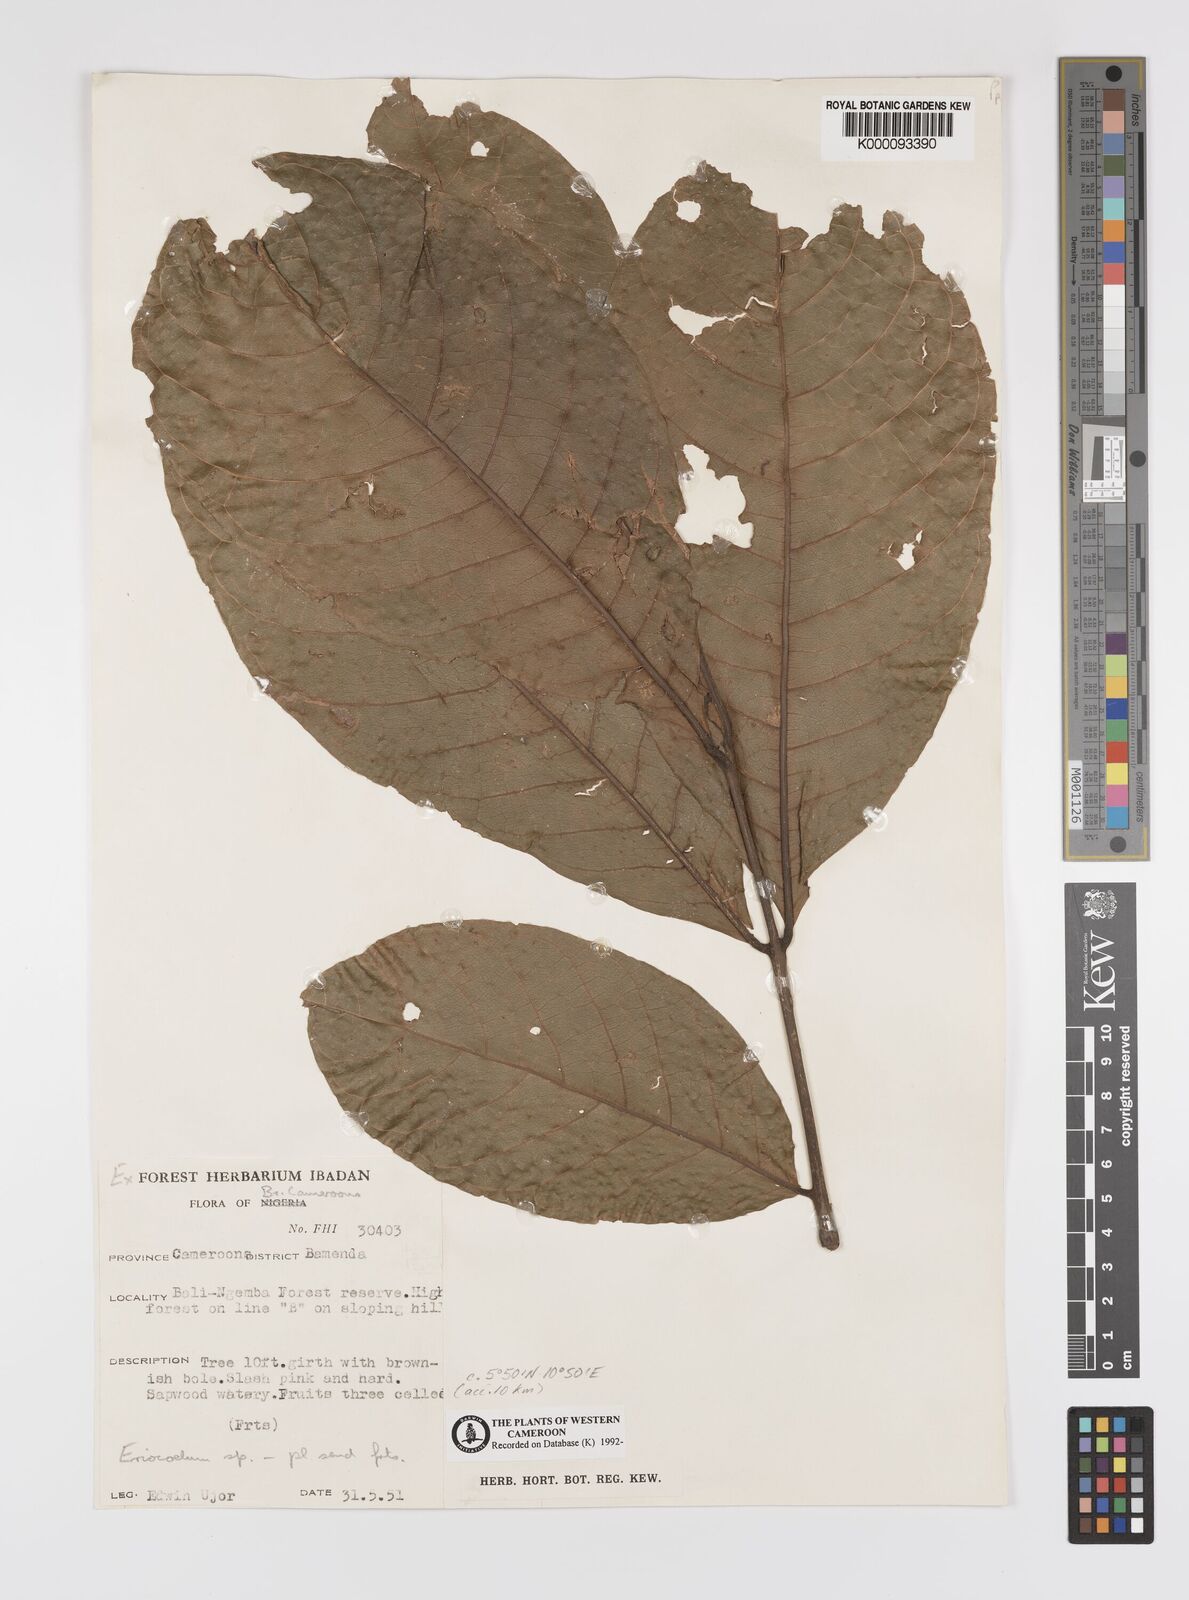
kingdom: Plantae
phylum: Tracheophyta
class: Magnoliopsida
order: Sapindales
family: Sapindaceae
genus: Eriocoelum
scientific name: Eriocoelum
